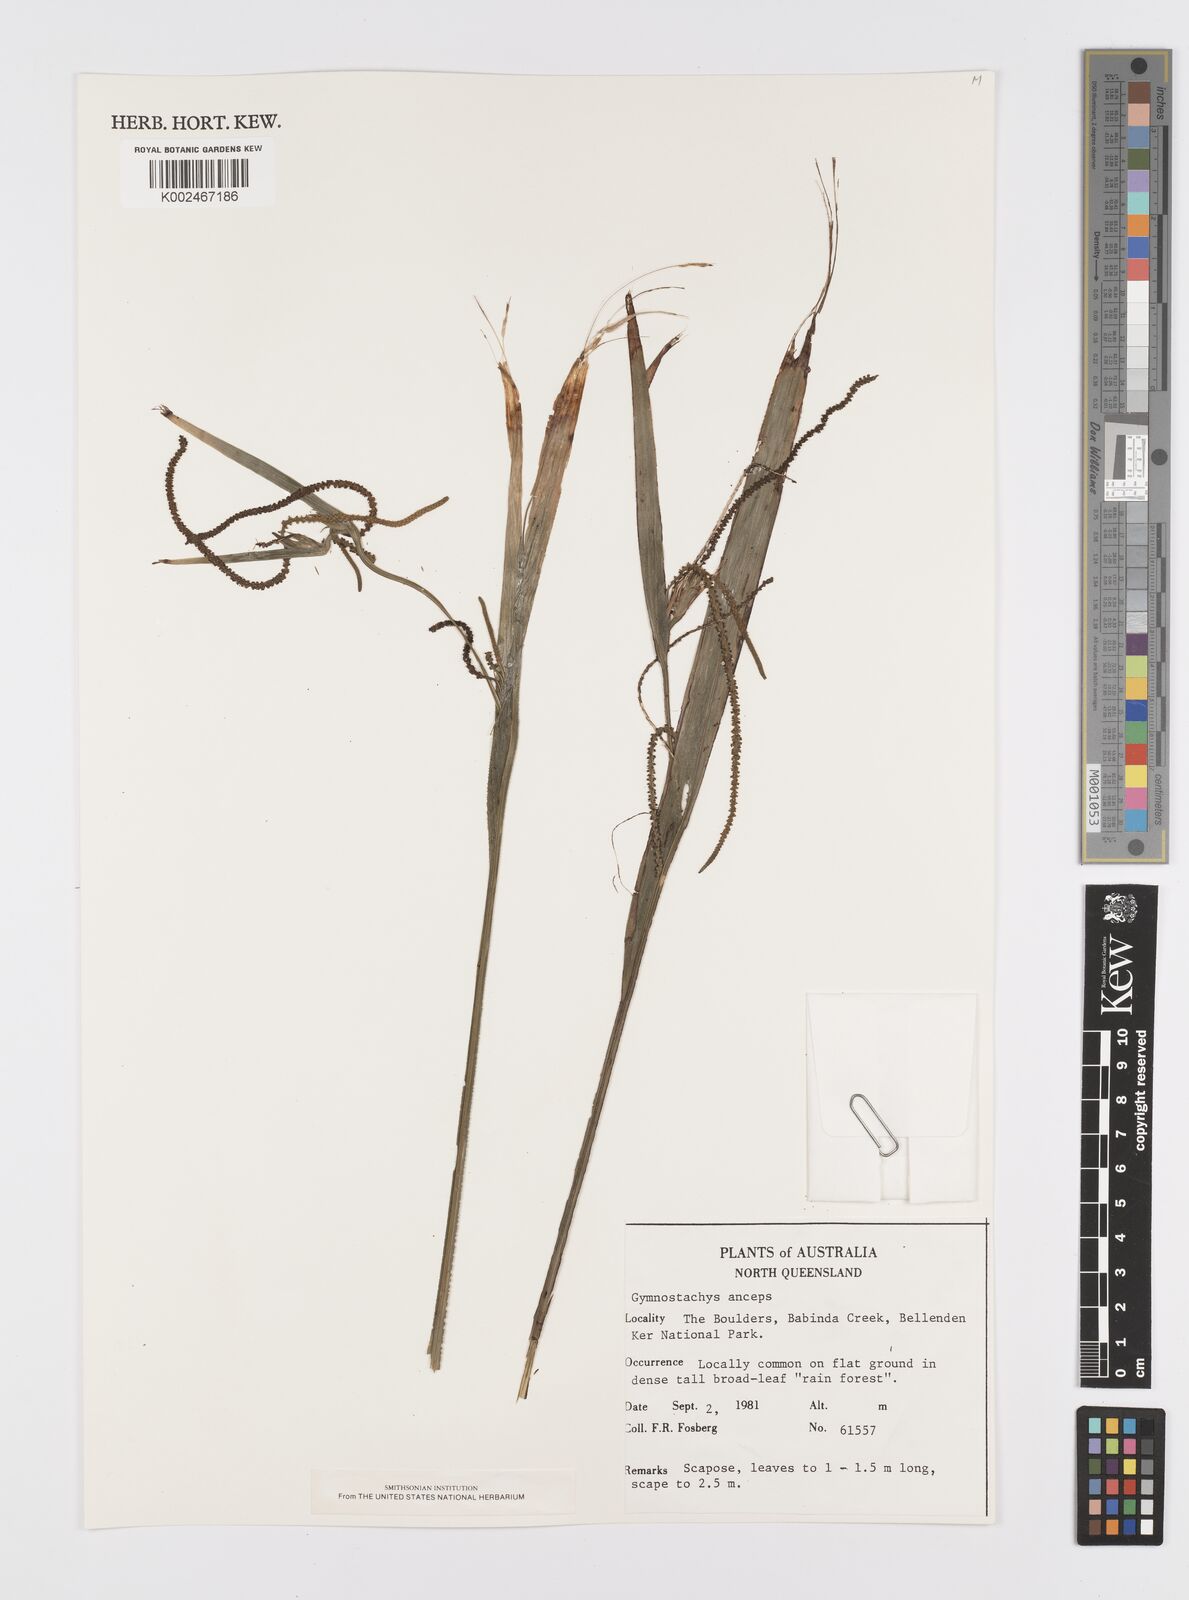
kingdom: Plantae
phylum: Tracheophyta
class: Liliopsida
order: Alismatales
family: Araceae
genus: Gymnostachys
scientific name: Gymnostachys anceps
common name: Settler's-flax
